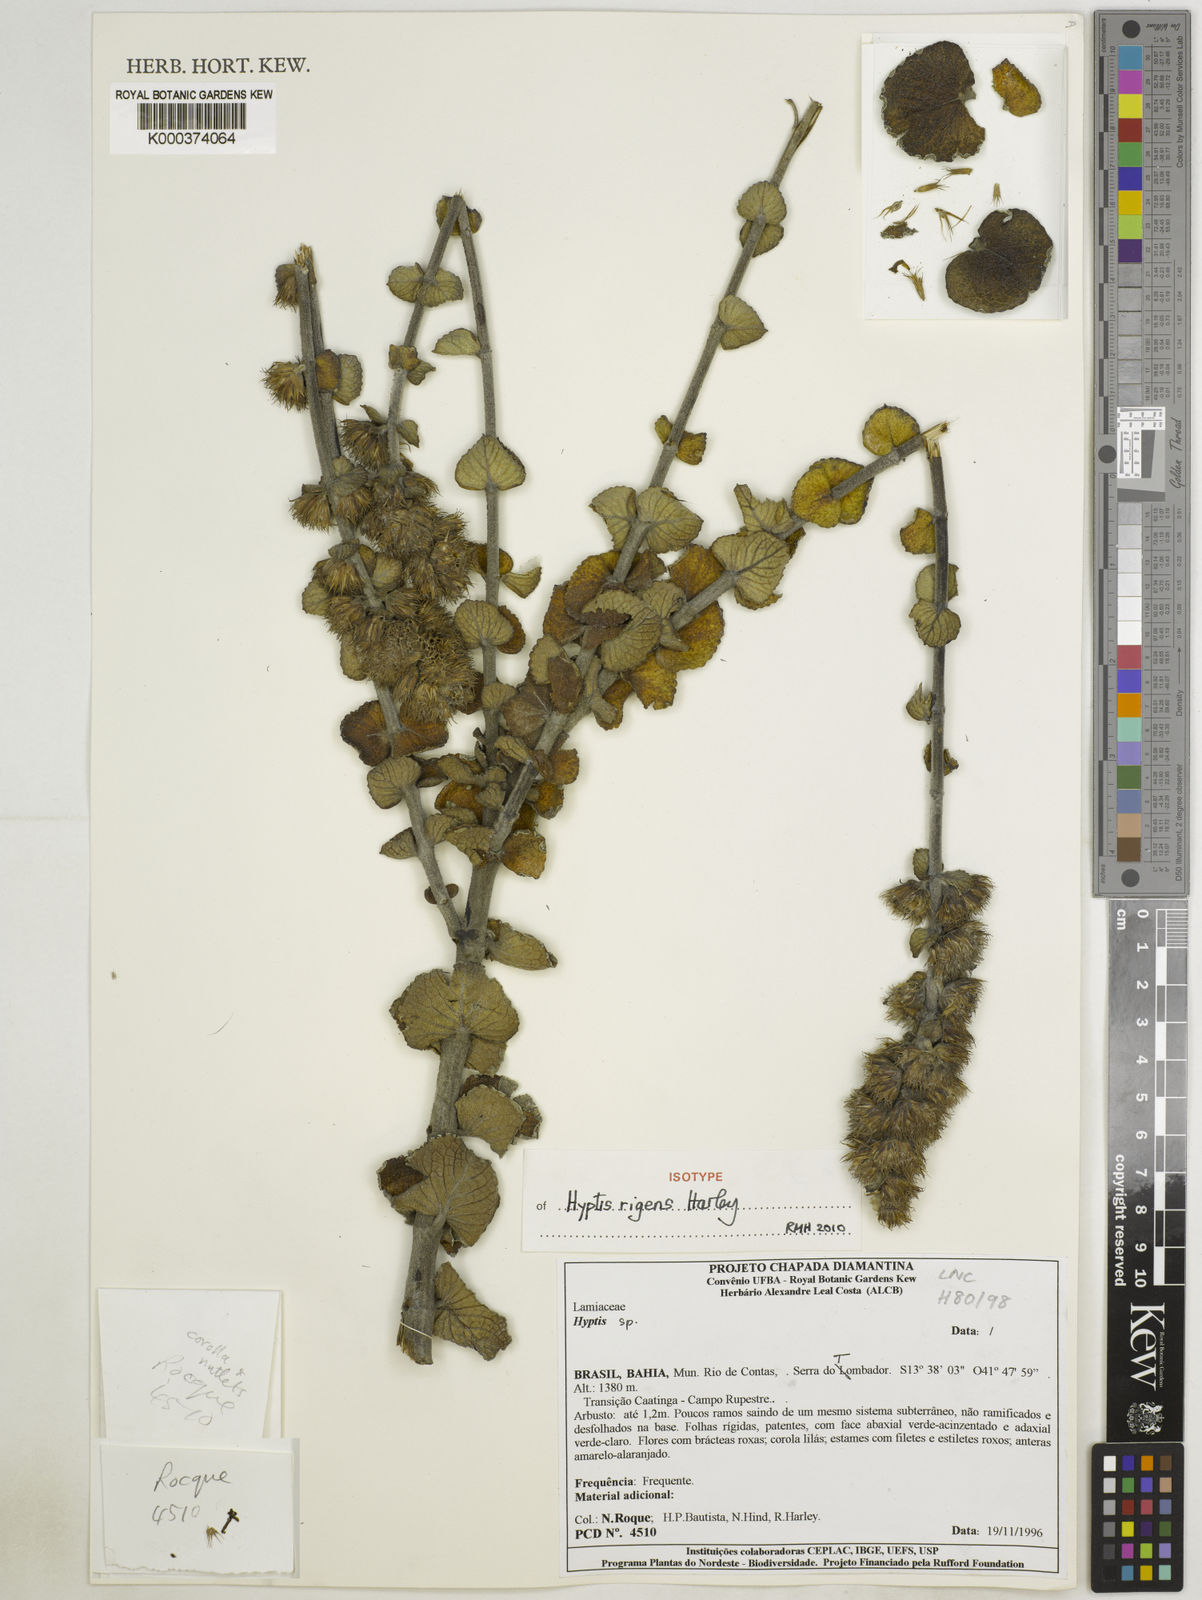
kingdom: Plantae
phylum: Tracheophyta
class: Magnoliopsida
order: Lamiales
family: Lamiaceae
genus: Hyptis
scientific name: Hyptis
